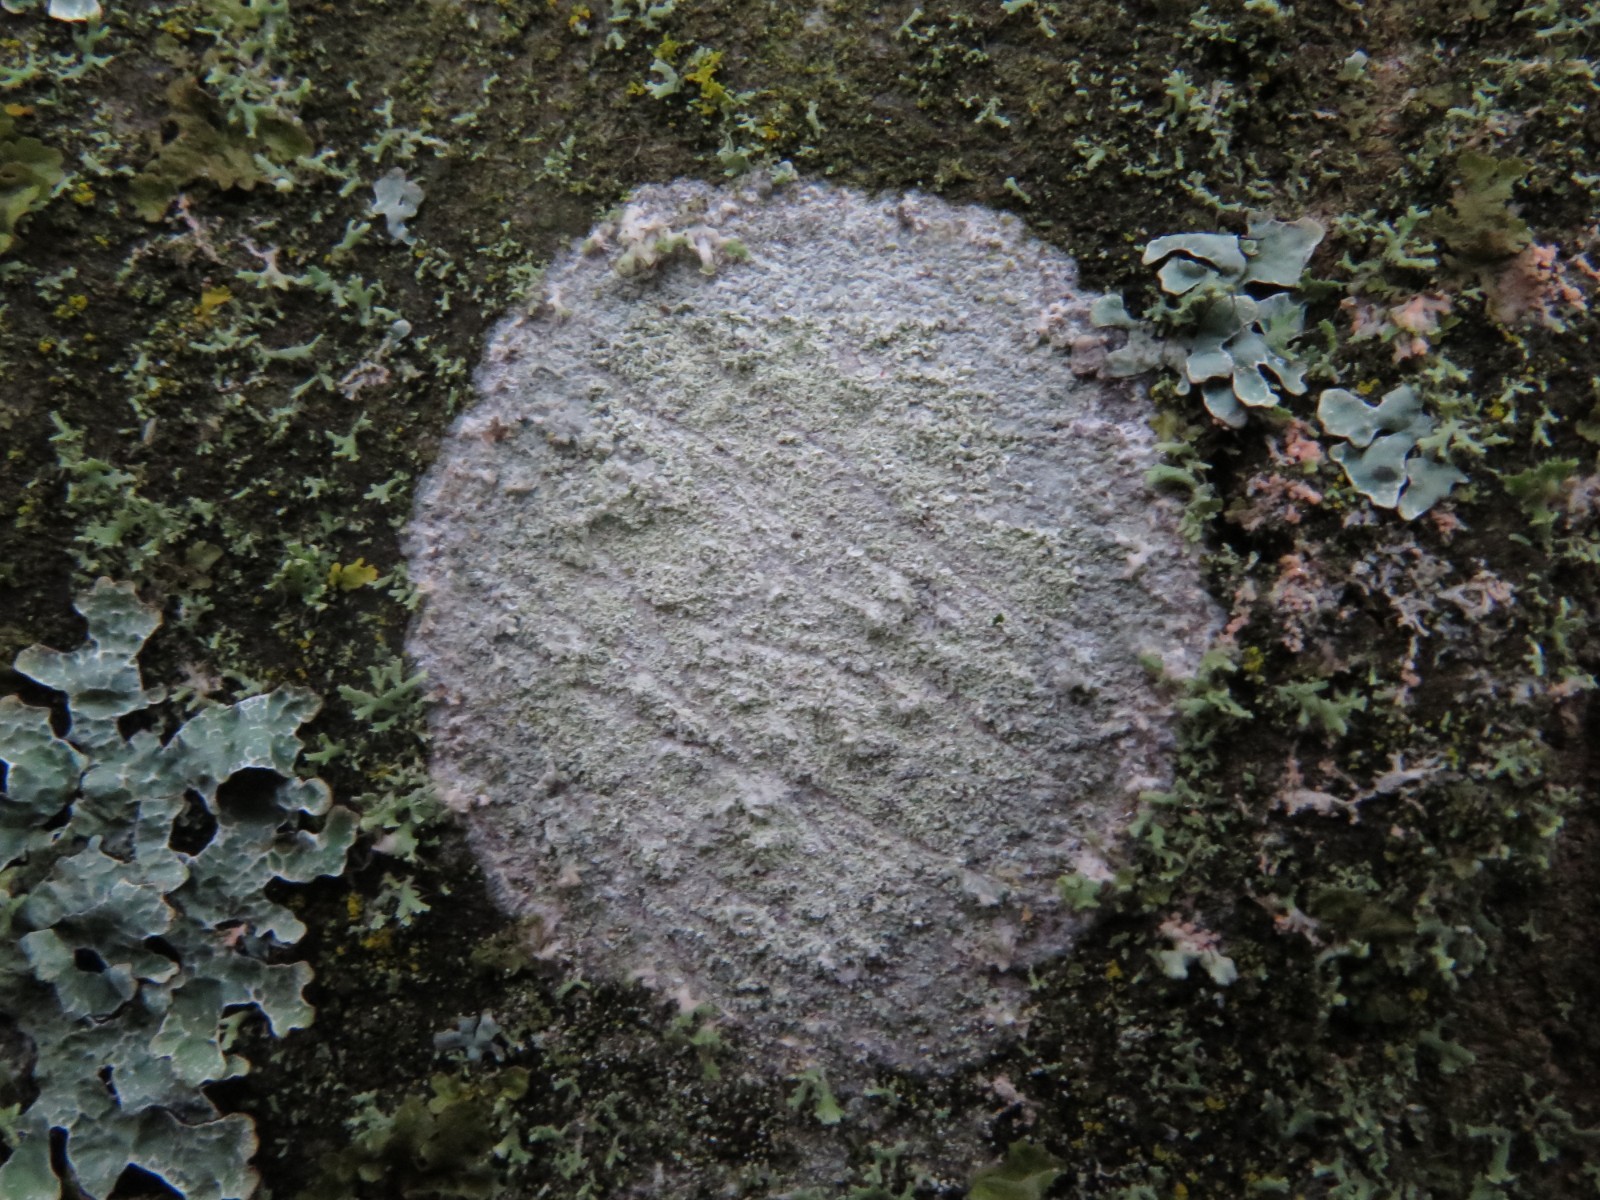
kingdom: Fungi
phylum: Ascomycota
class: Lecanoromycetes
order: Ostropales
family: Phlyctidaceae
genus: Phlyctis
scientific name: Phlyctis argena
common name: almindelig sølvlav
